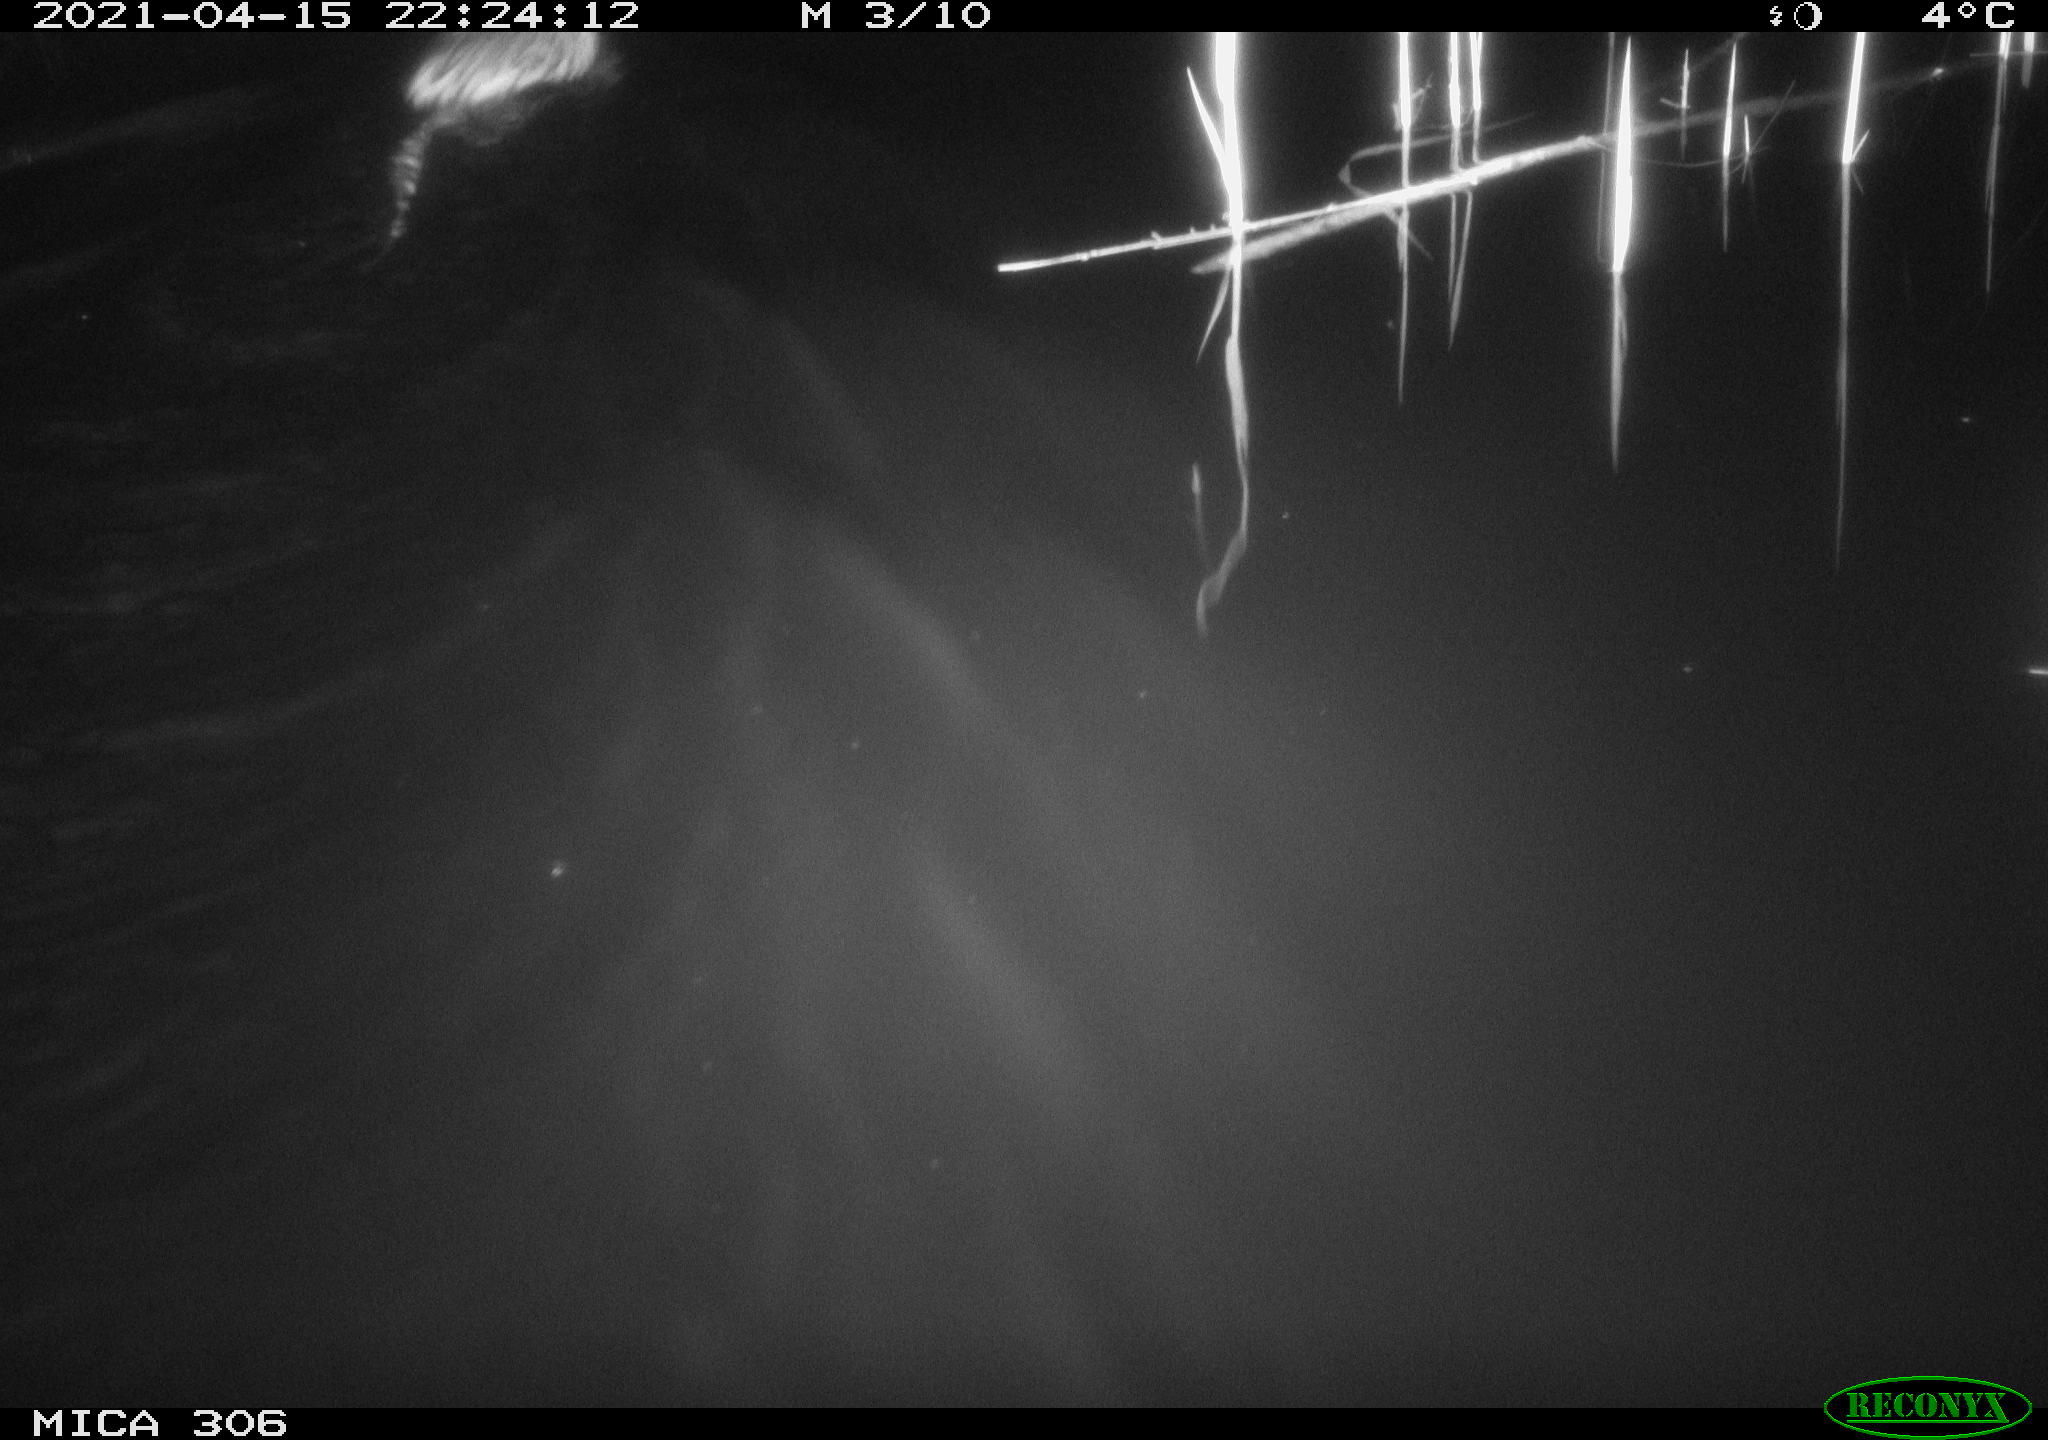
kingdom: Animalia
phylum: Chordata
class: Mammalia
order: Rodentia
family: Cricetidae
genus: Ondatra
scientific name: Ondatra zibethicus
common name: Muskrat
